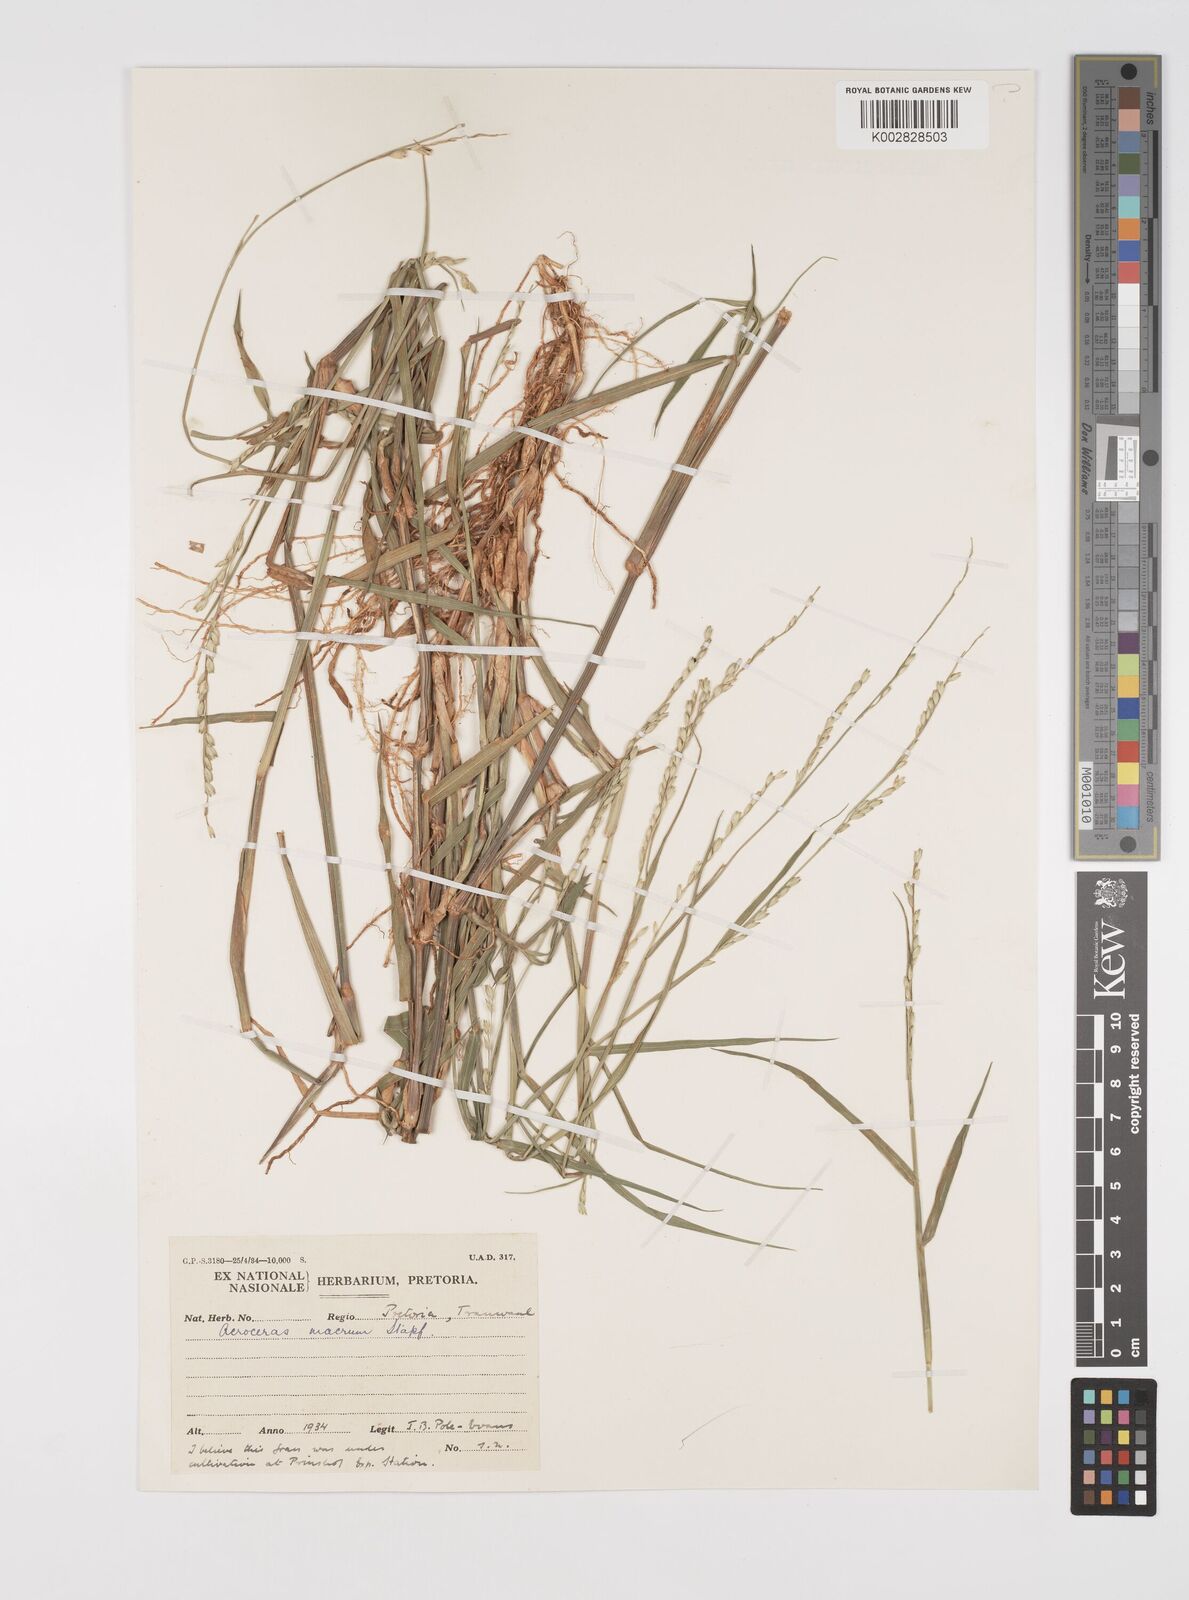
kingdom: Plantae
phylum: Tracheophyta
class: Liliopsida
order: Poales
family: Poaceae
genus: Acroceras
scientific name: Acroceras macrum
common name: Nyl grass
